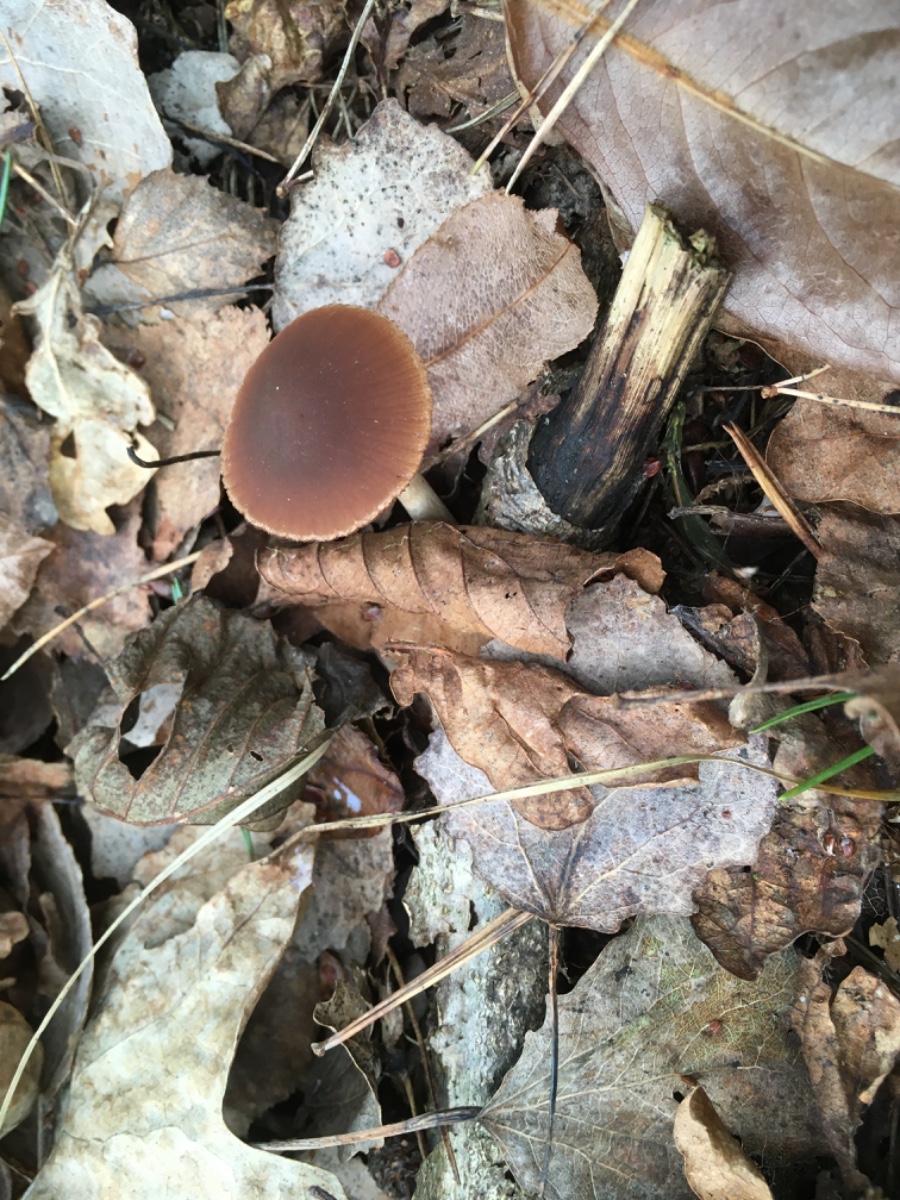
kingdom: Fungi
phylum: Basidiomycota
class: Agaricomycetes
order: Agaricales
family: Psathyrellaceae
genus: Psathyrella
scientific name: Psathyrella
